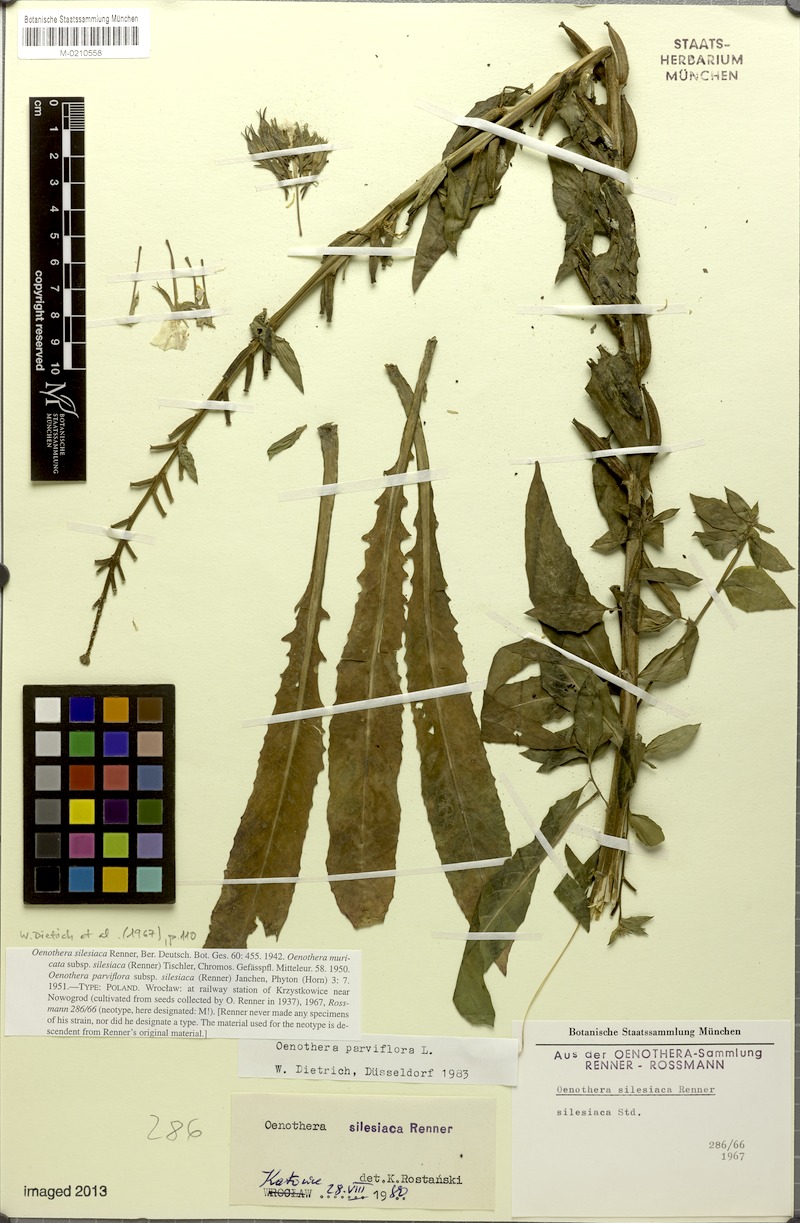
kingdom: Plantae
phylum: Tracheophyta
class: Magnoliopsida
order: Myrtales
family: Onagraceae
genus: Oenothera
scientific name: Oenothera parviflora
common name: Least evening-primrose
